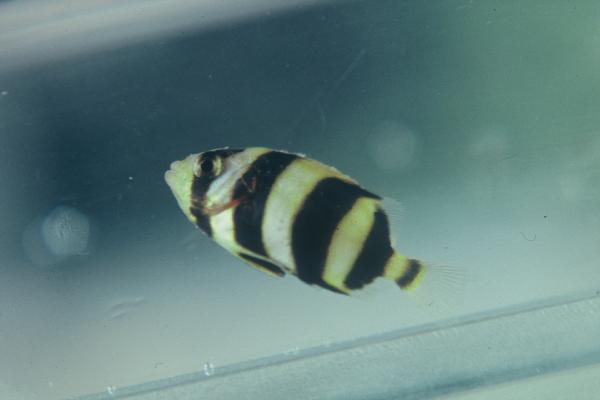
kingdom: Animalia
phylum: Chordata
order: Perciformes
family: Oplegnathidae
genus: Oplegnathus
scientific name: Oplegnathus
